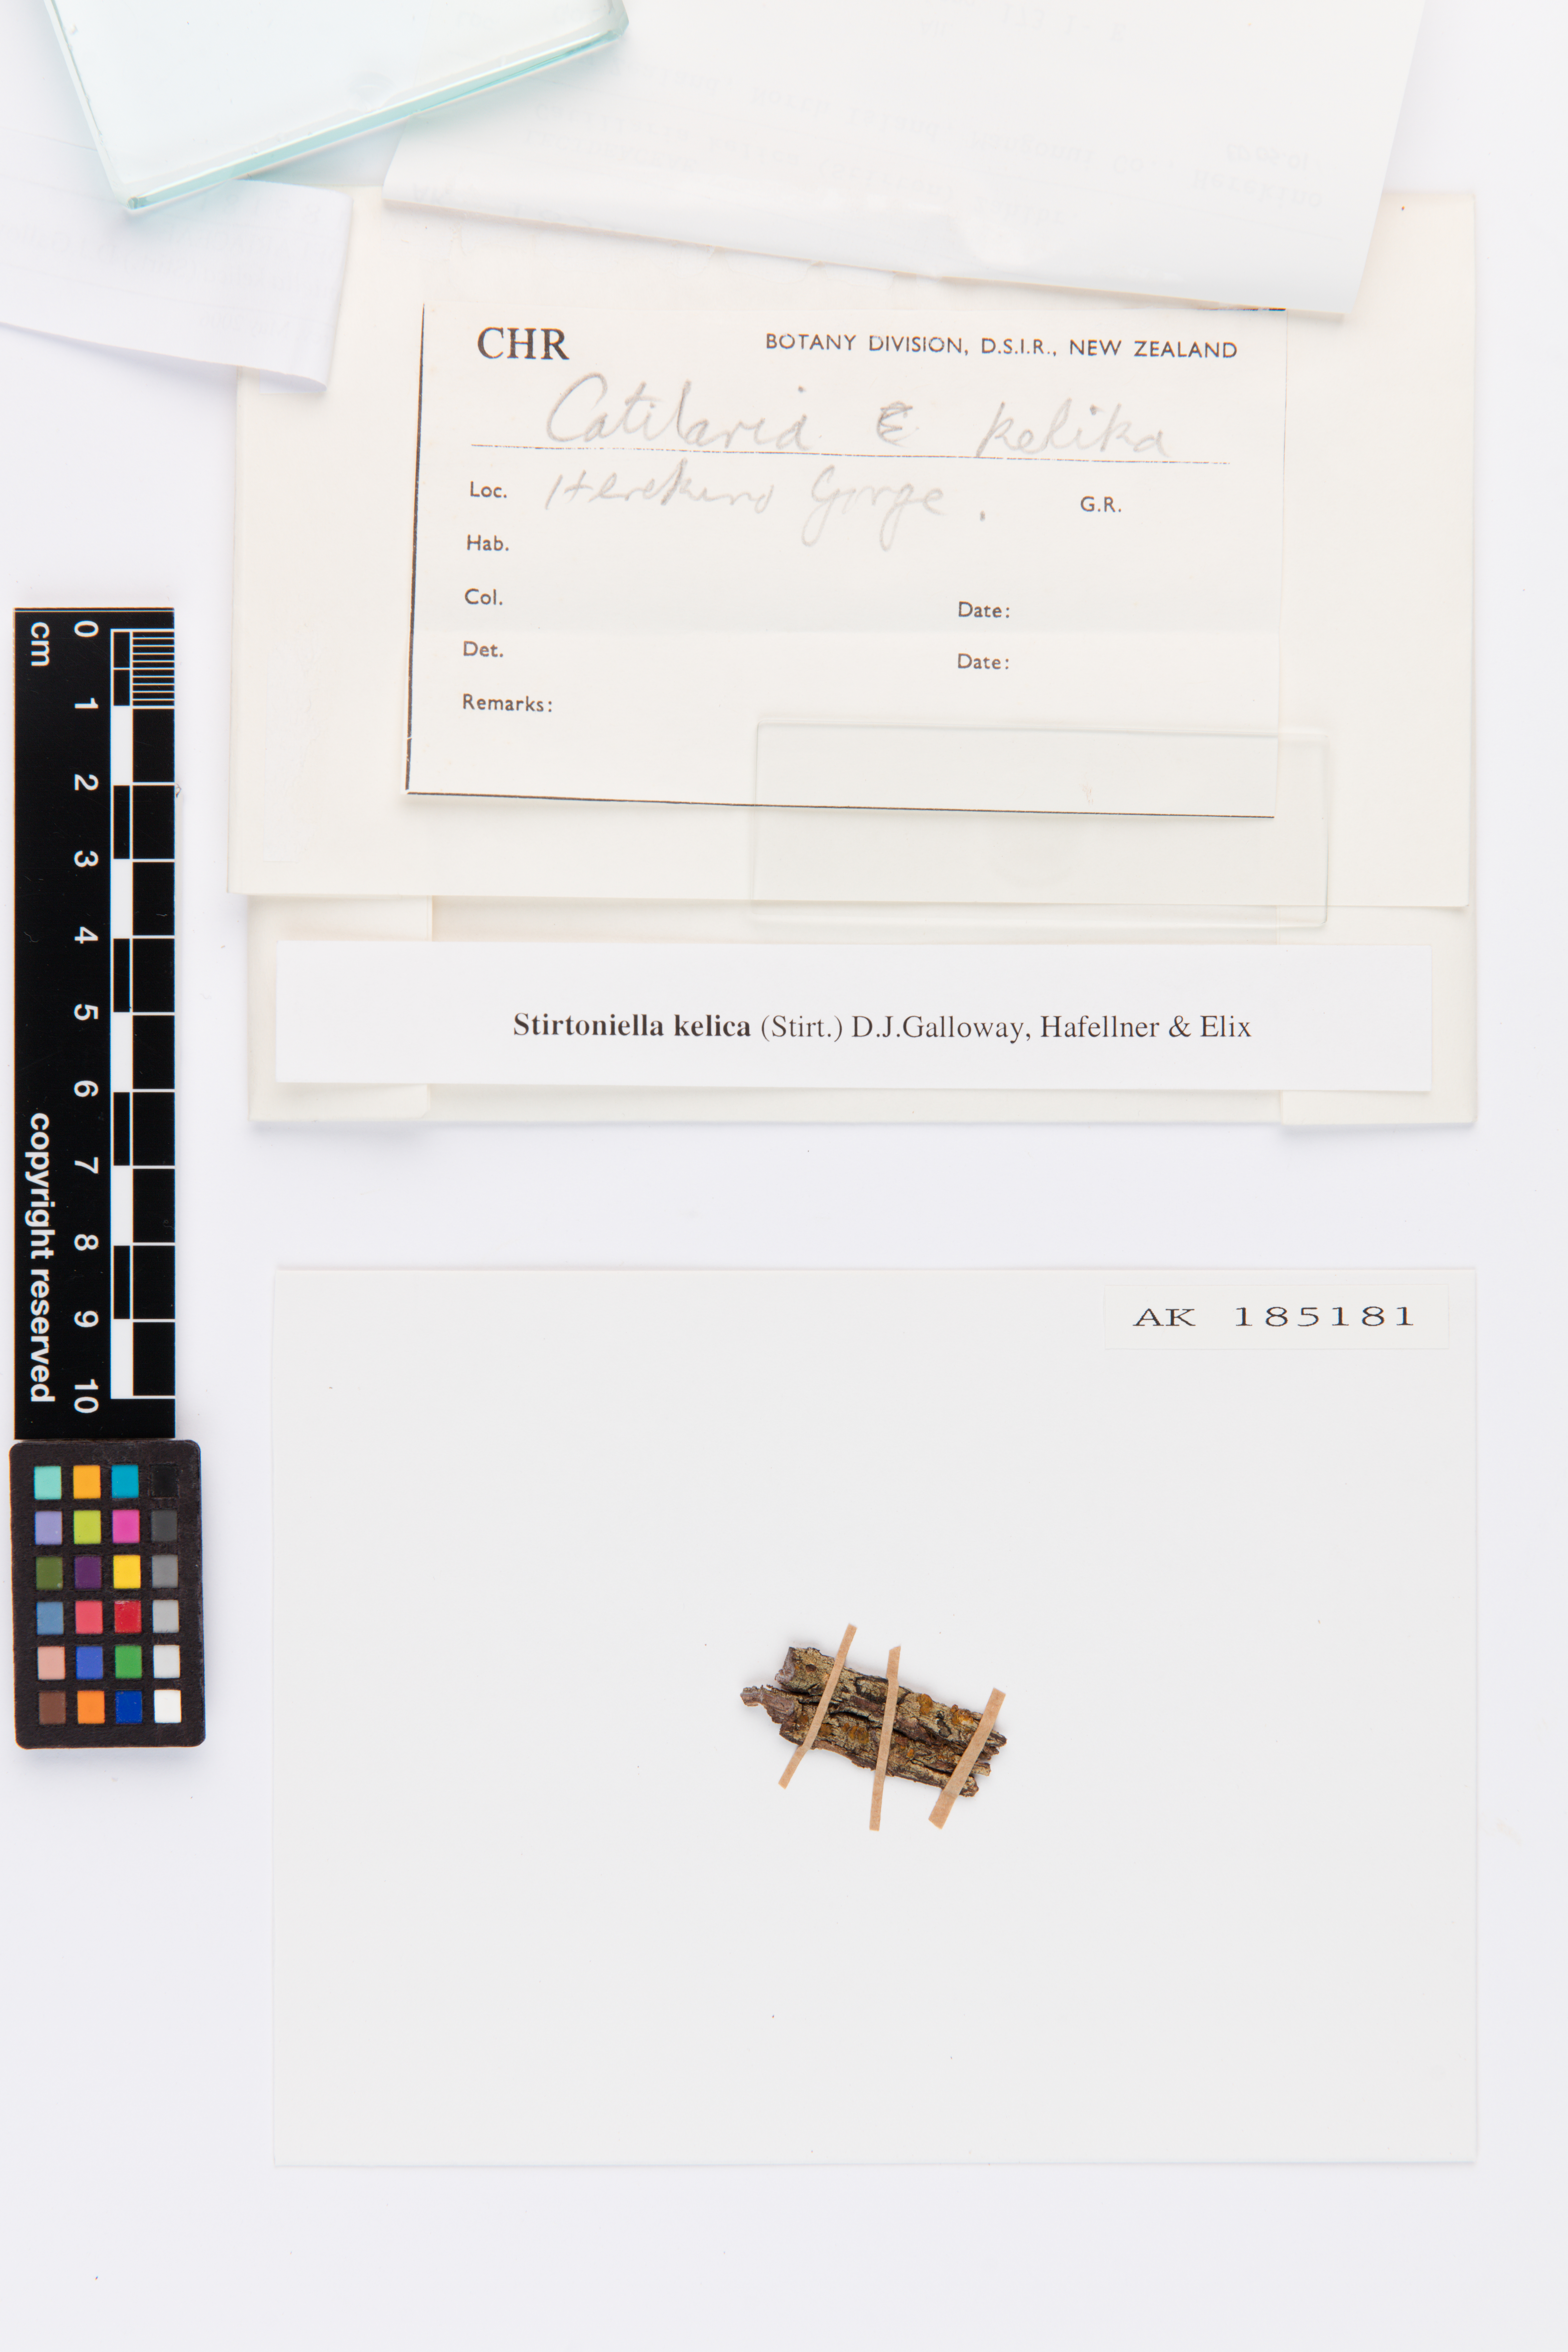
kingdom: Fungi
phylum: Ascomycota
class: Lecanoromycetes
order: Lecanorales
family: Ramalinaceae
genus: Stirtoniella
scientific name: Stirtoniella kelica
